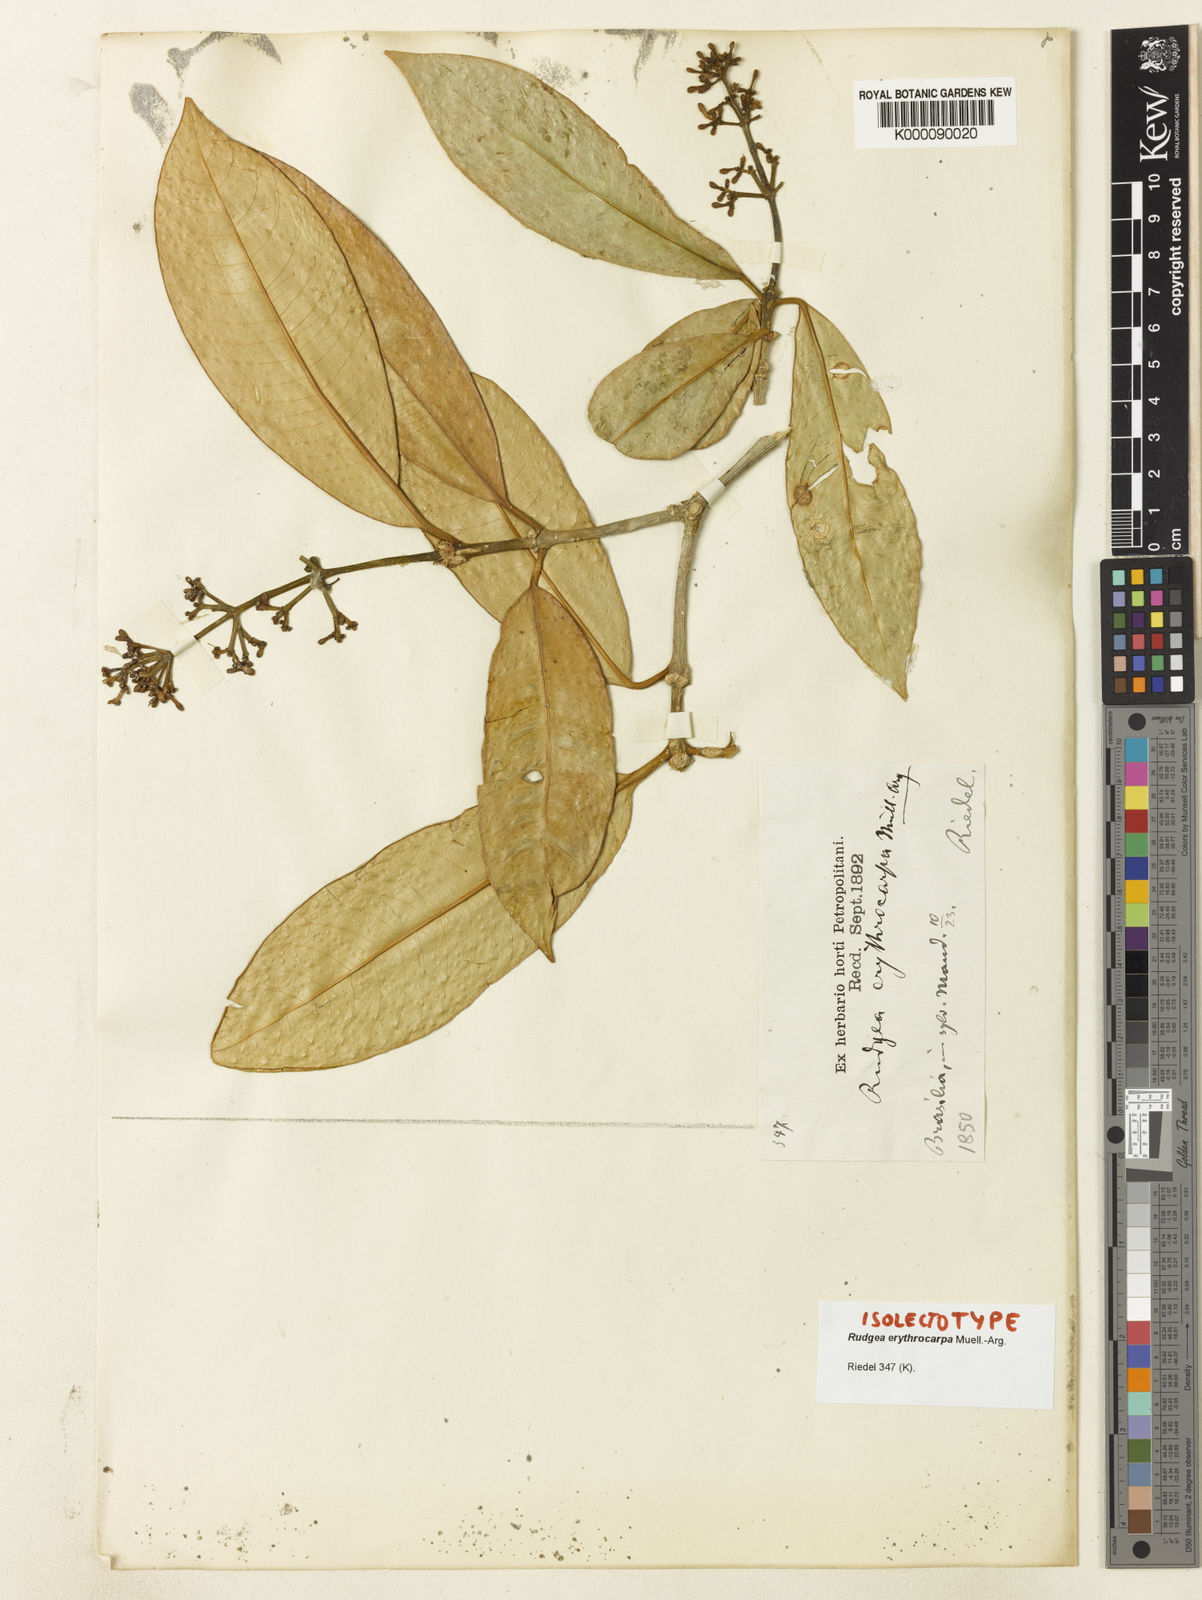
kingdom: Plantae
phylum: Tracheophyta
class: Magnoliopsida
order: Gentianales
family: Rubiaceae
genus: Rudgea
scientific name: Rudgea
